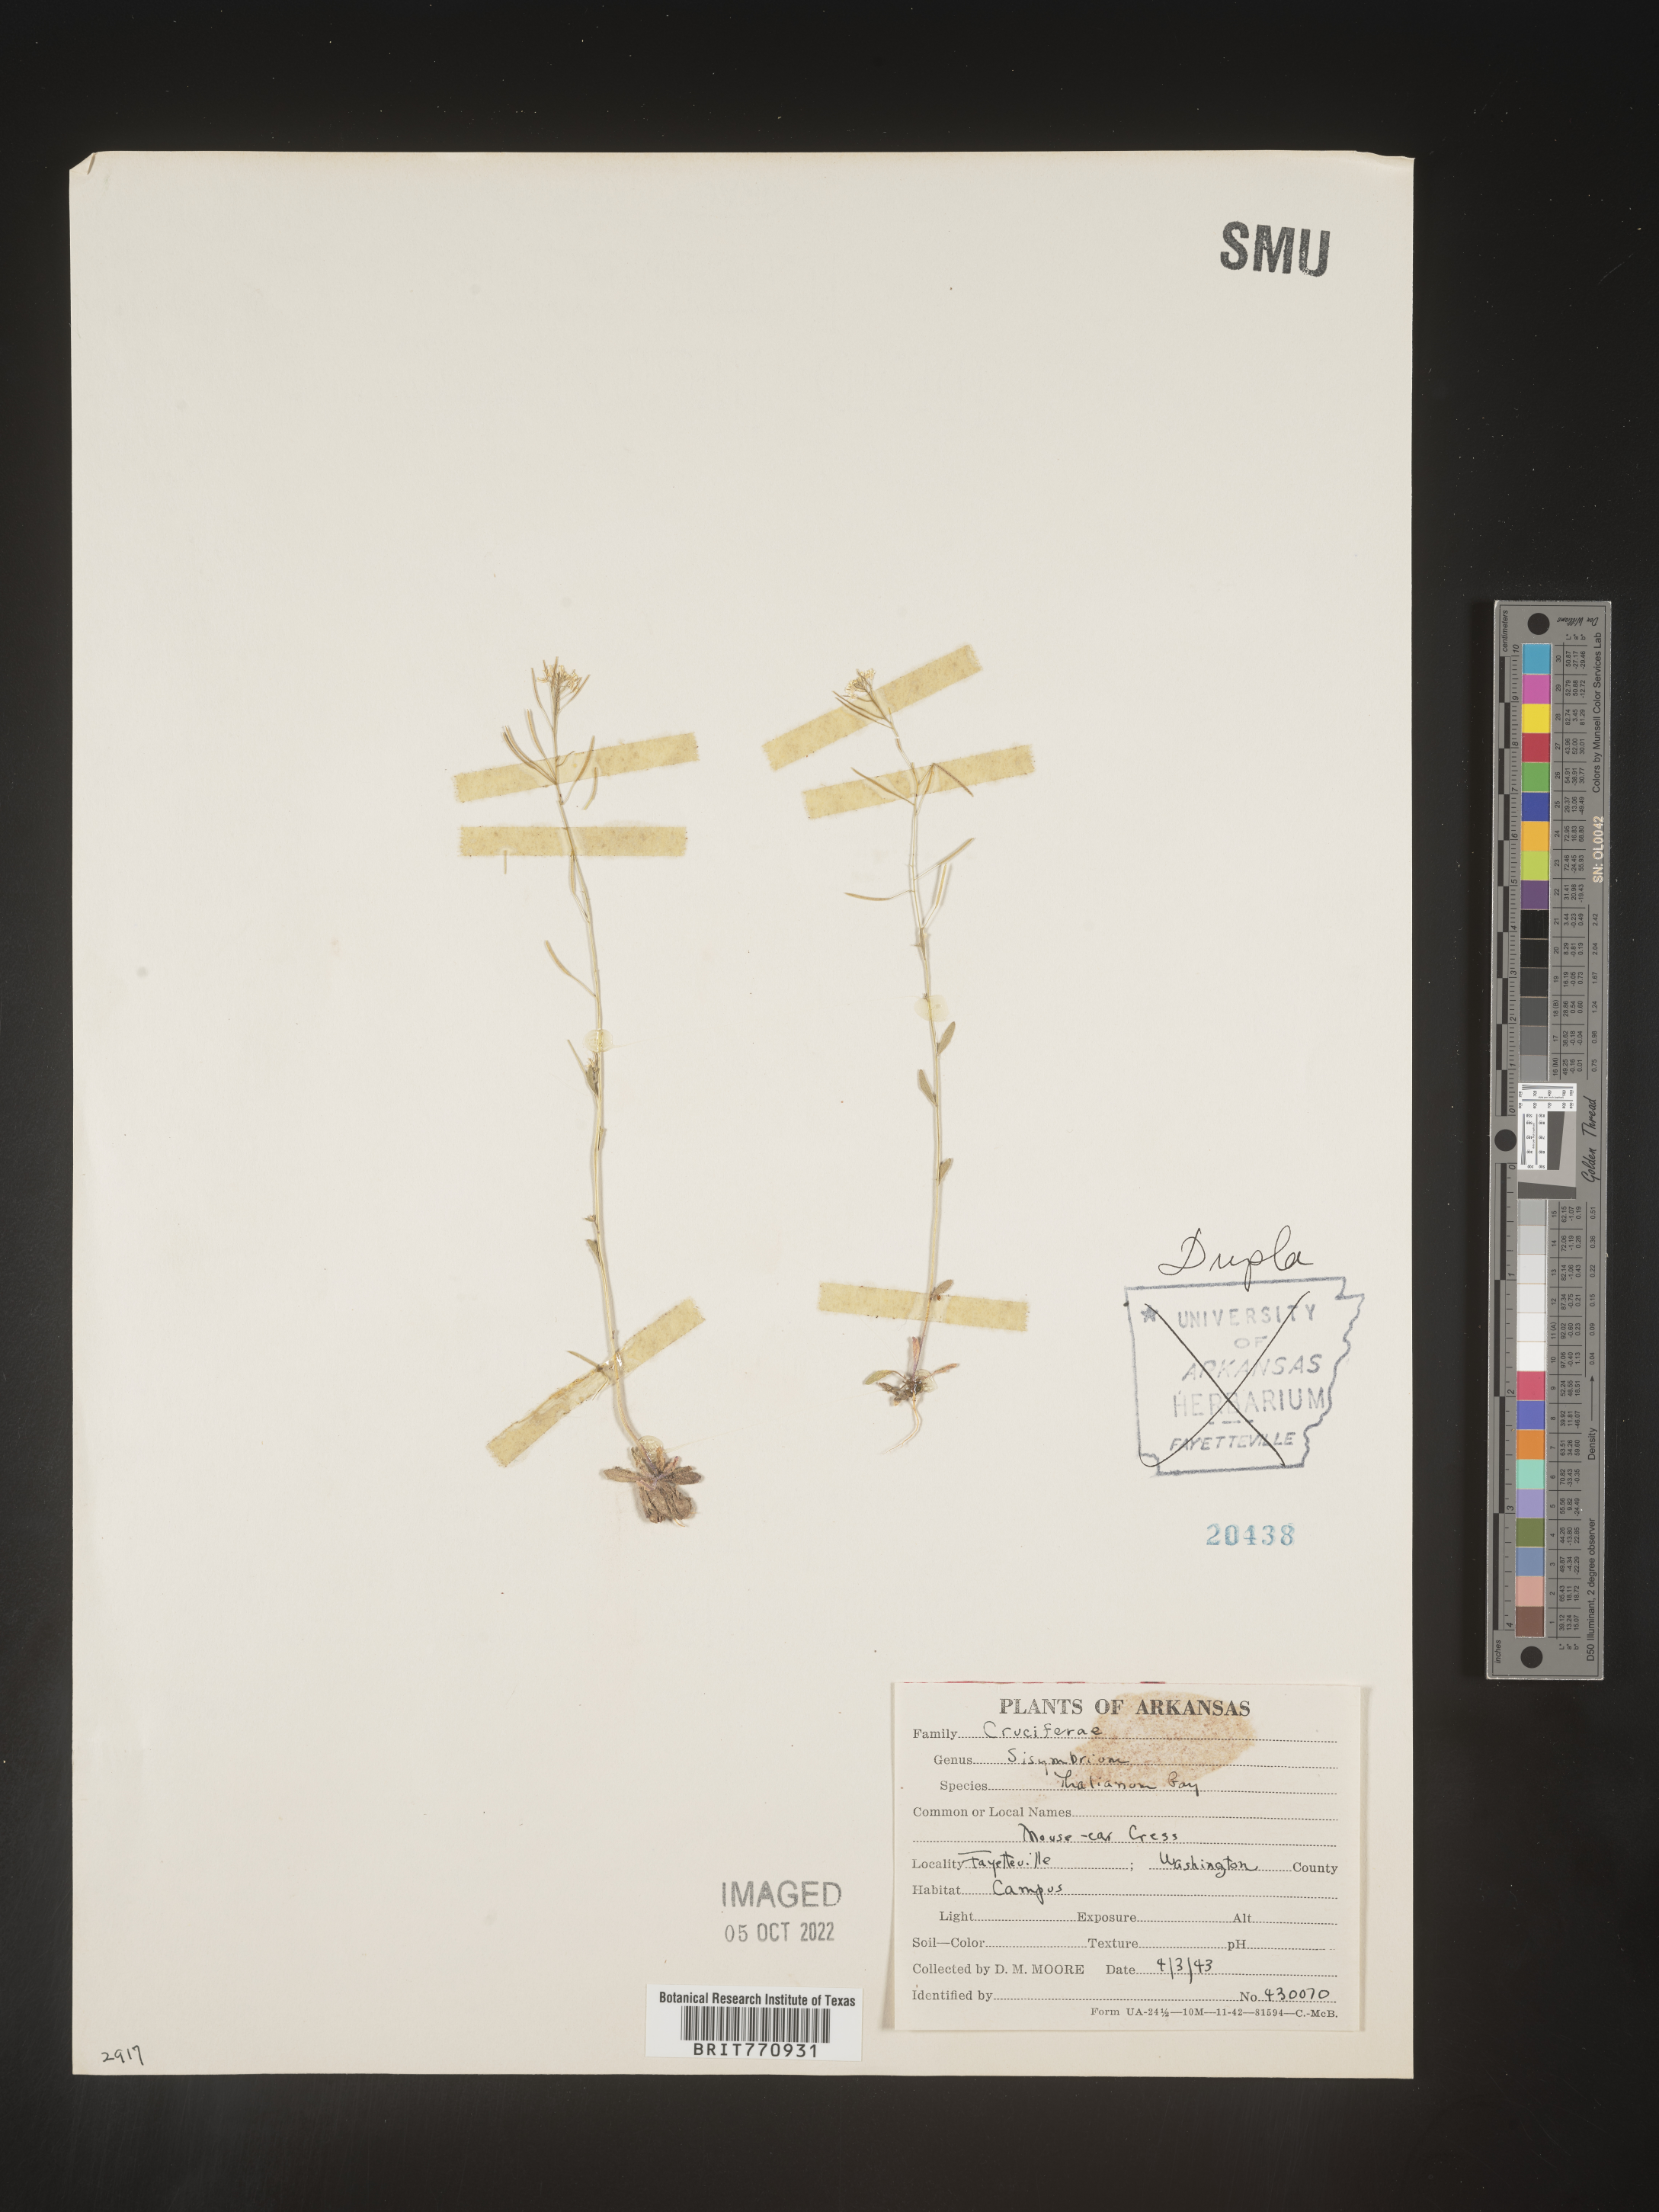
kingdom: Plantae
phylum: Tracheophyta
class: Magnoliopsida
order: Brassicales
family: Brassicaceae
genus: Arabidopsis
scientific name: Arabidopsis thaliana
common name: Thale cress
